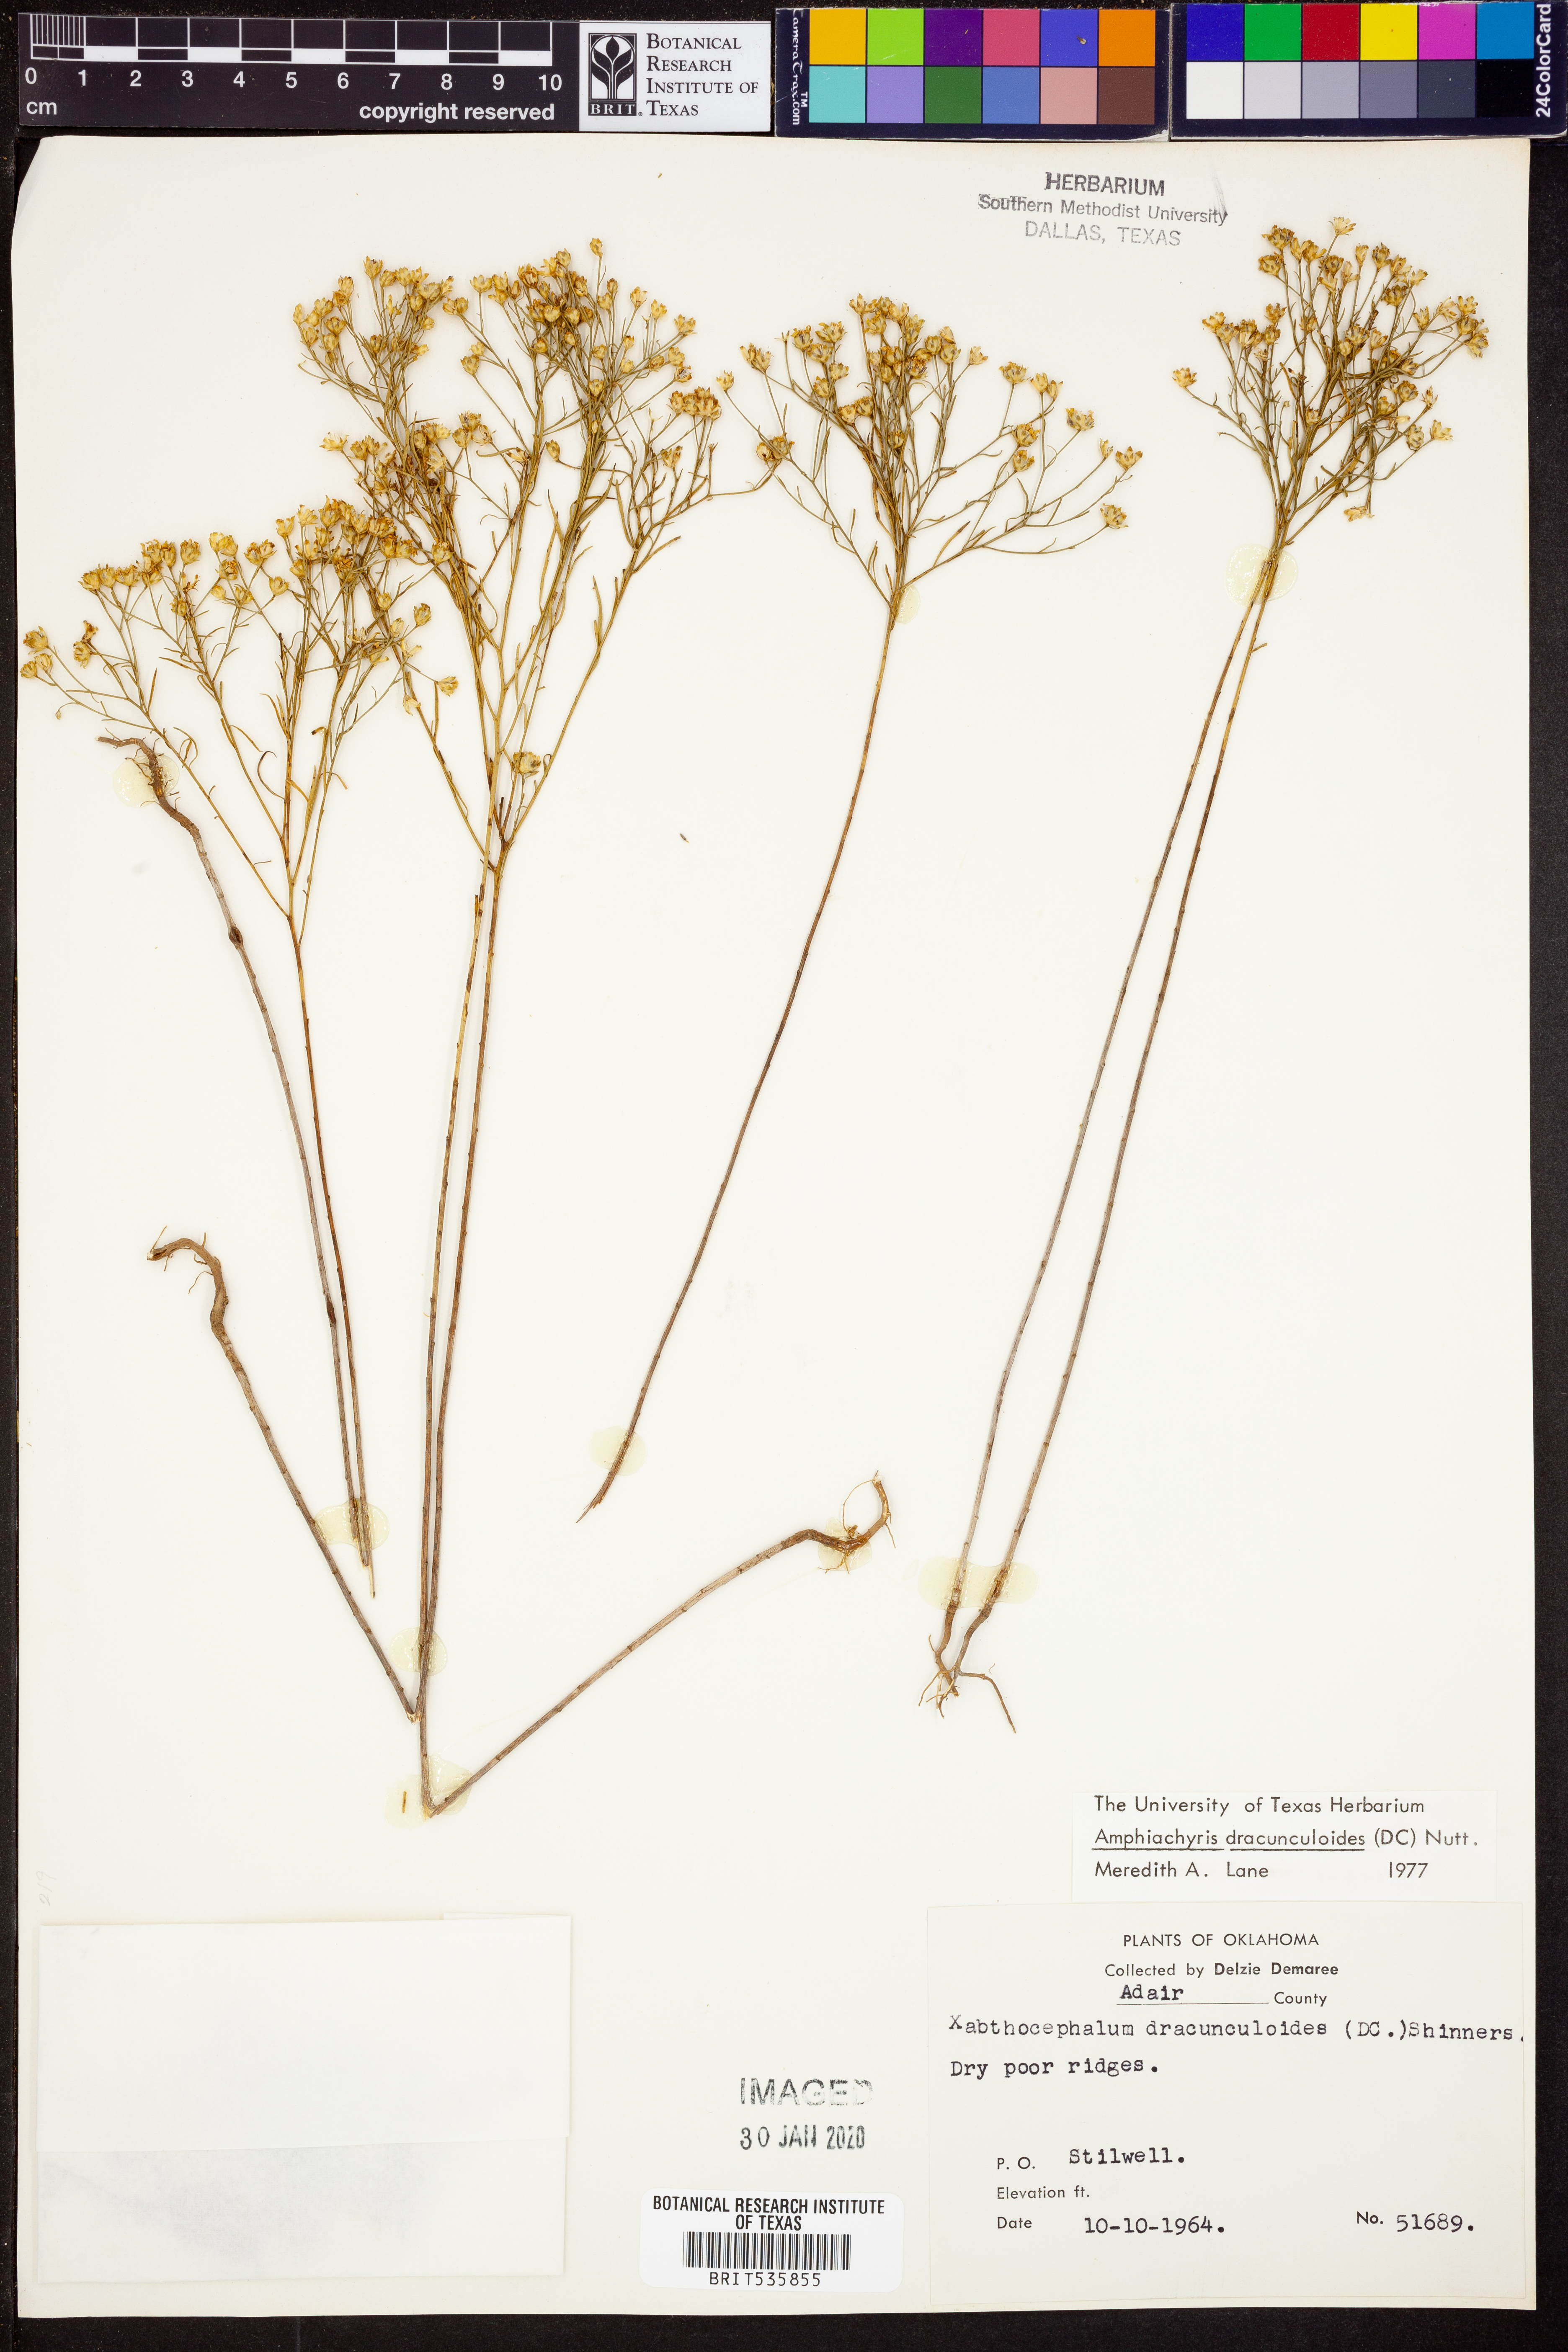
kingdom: Plantae
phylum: Tracheophyta
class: Magnoliopsida
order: Asterales
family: Asteraceae
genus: Amphiachyris
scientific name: Amphiachyris dracunculoides
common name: Broomweed
